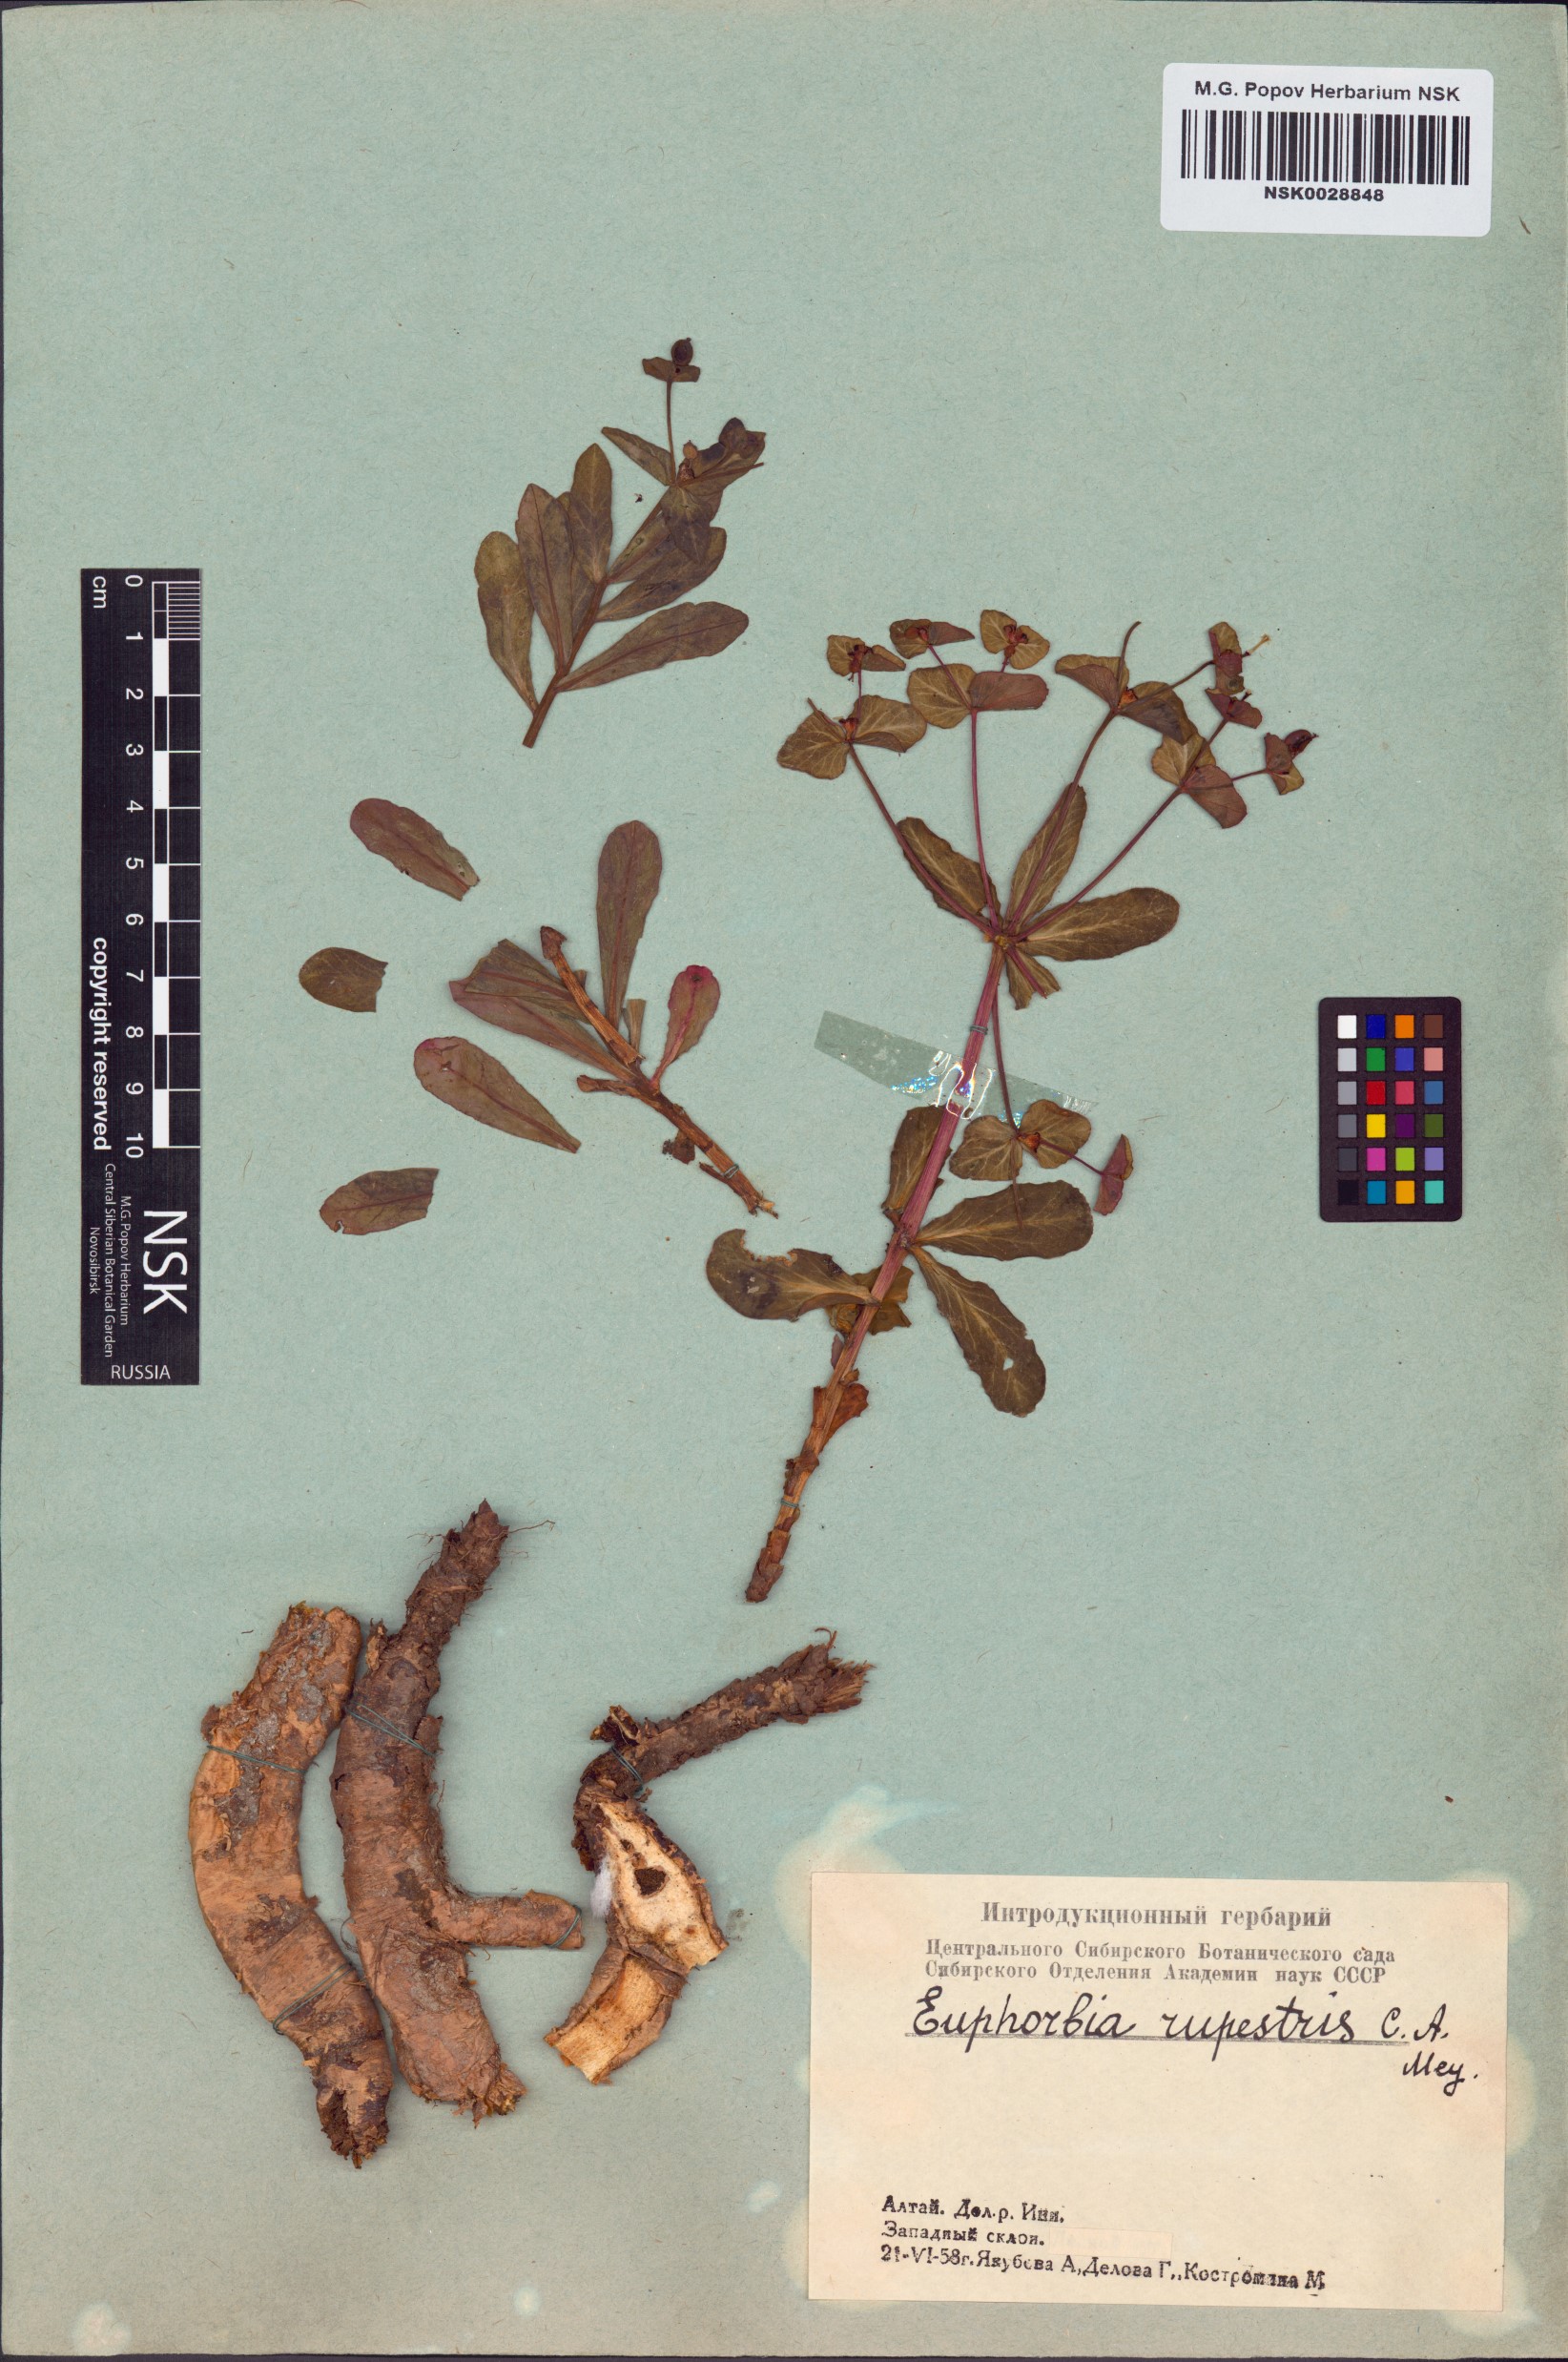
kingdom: Plantae
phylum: Tracheophyta
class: Magnoliopsida
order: Malpighiales
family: Euphorbiaceae
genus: Euphorbia
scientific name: Euphorbia rupestris
